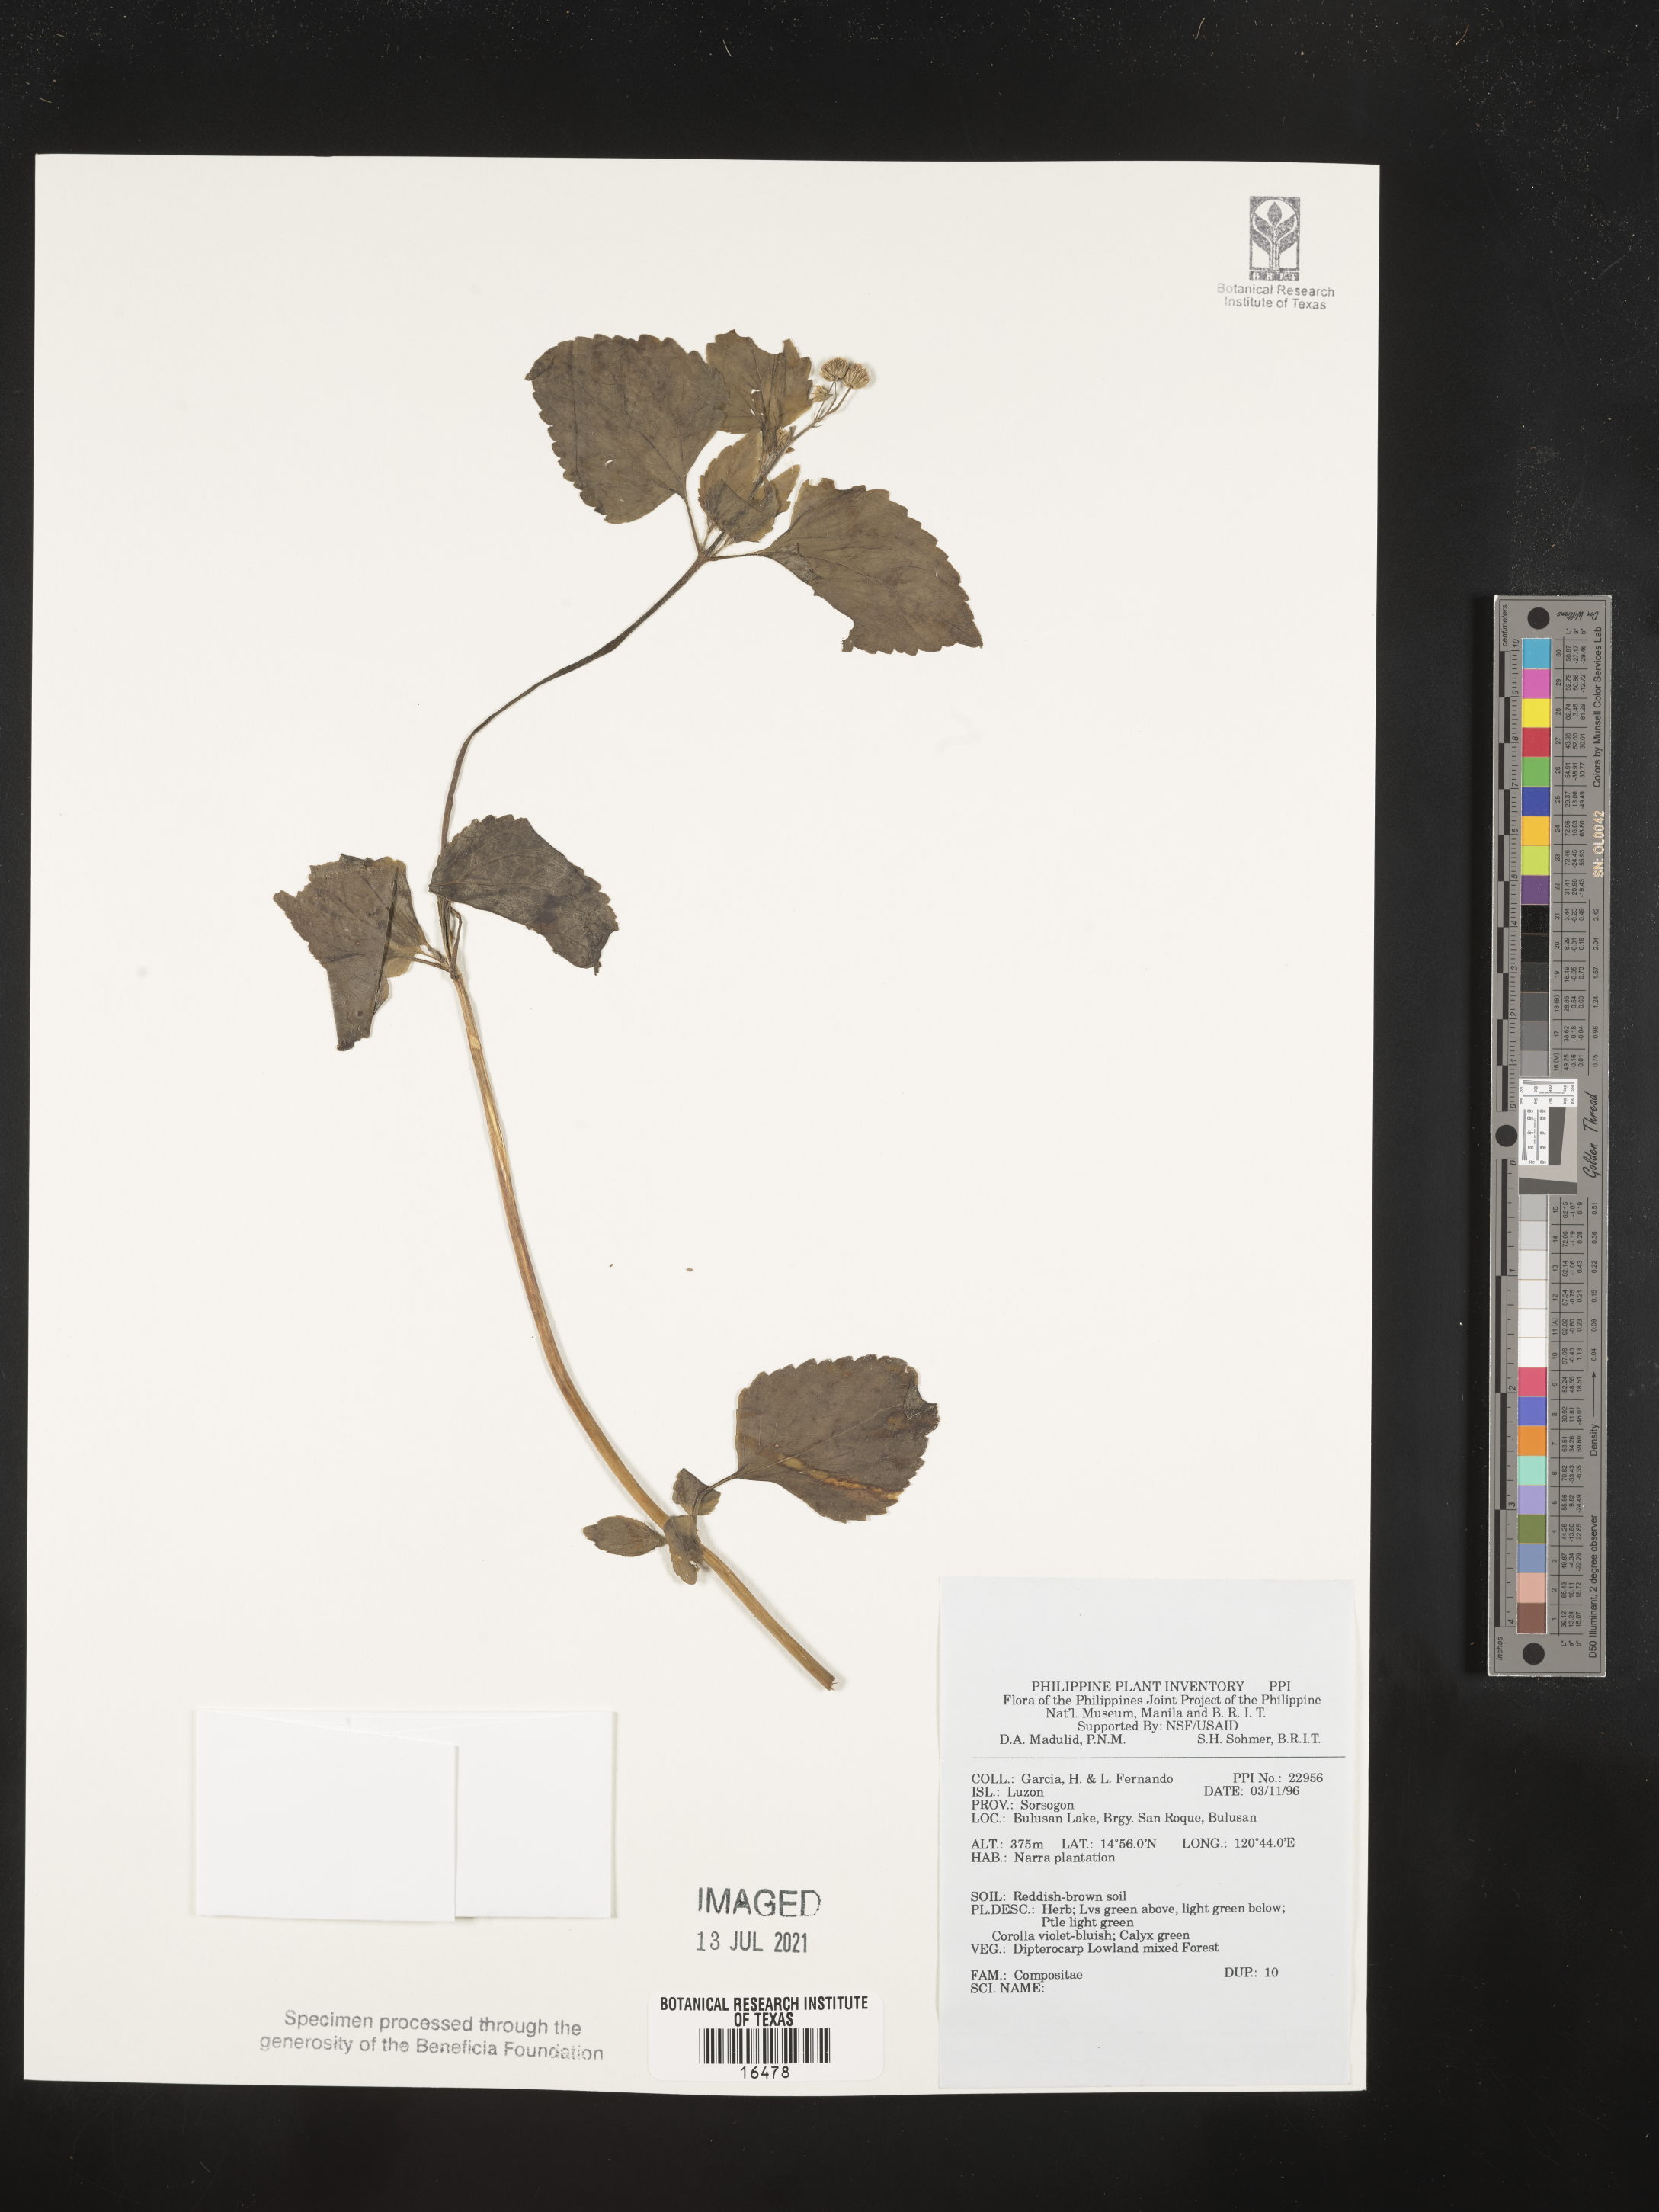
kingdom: Plantae
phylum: Tracheophyta
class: Magnoliopsida
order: Asterales
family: Asteraceae
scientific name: Asteraceae
